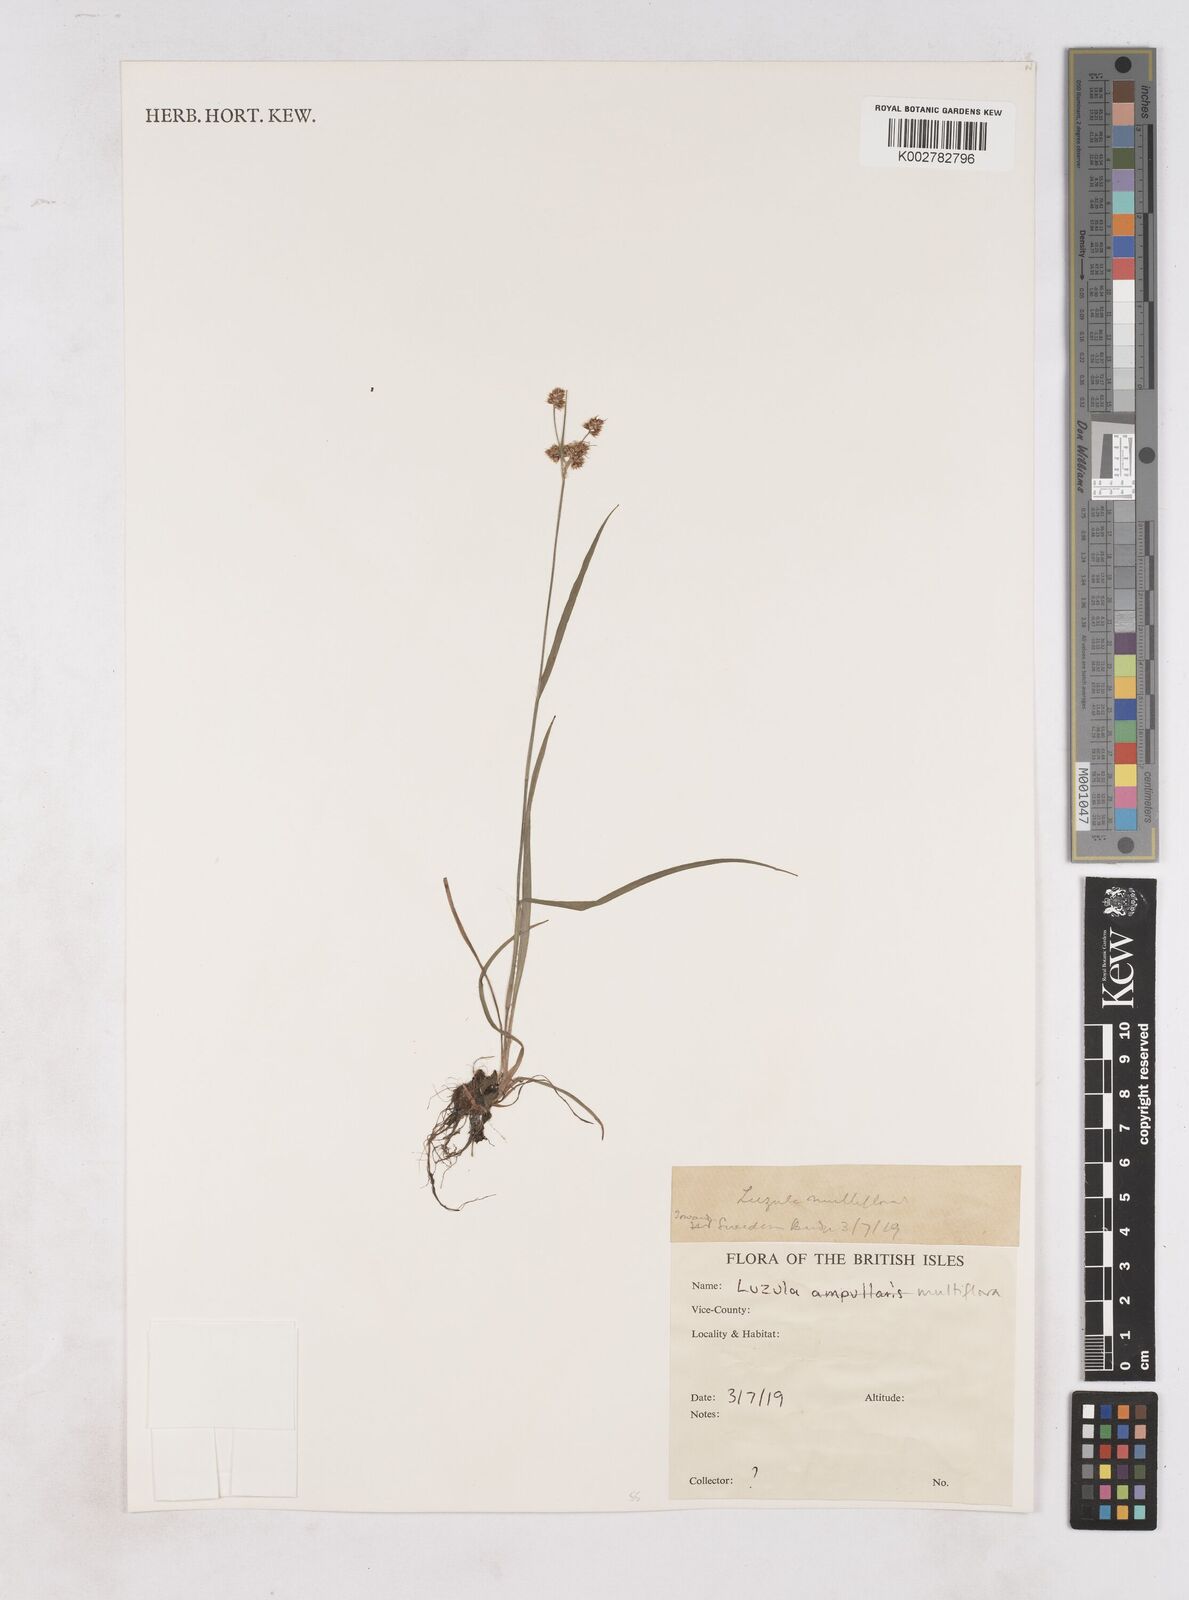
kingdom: Plantae
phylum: Tracheophyta
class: Liliopsida
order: Poales
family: Juncaceae
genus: Luzula
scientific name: Luzula campestris
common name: Field wood-rush
